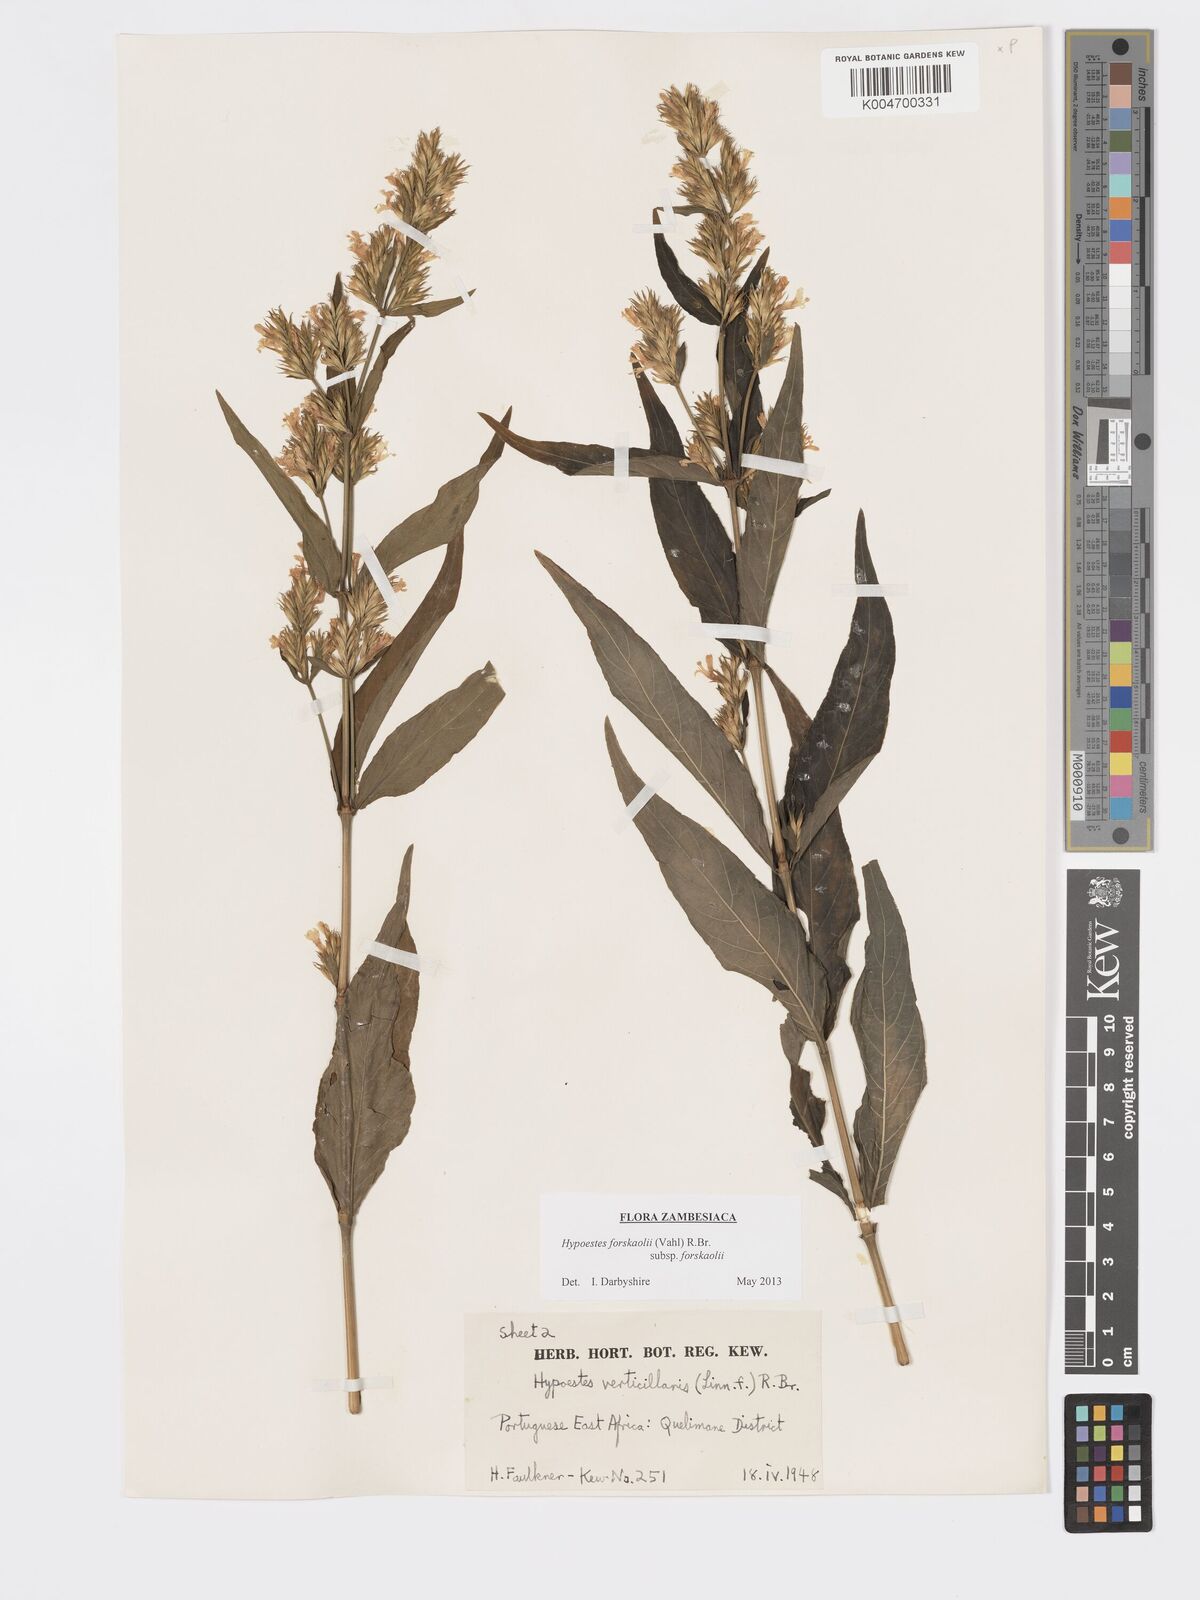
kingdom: Plantae
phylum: Tracheophyta
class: Magnoliopsida
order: Lamiales
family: Acanthaceae
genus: Hypoestes
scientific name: Hypoestes forskaolii
